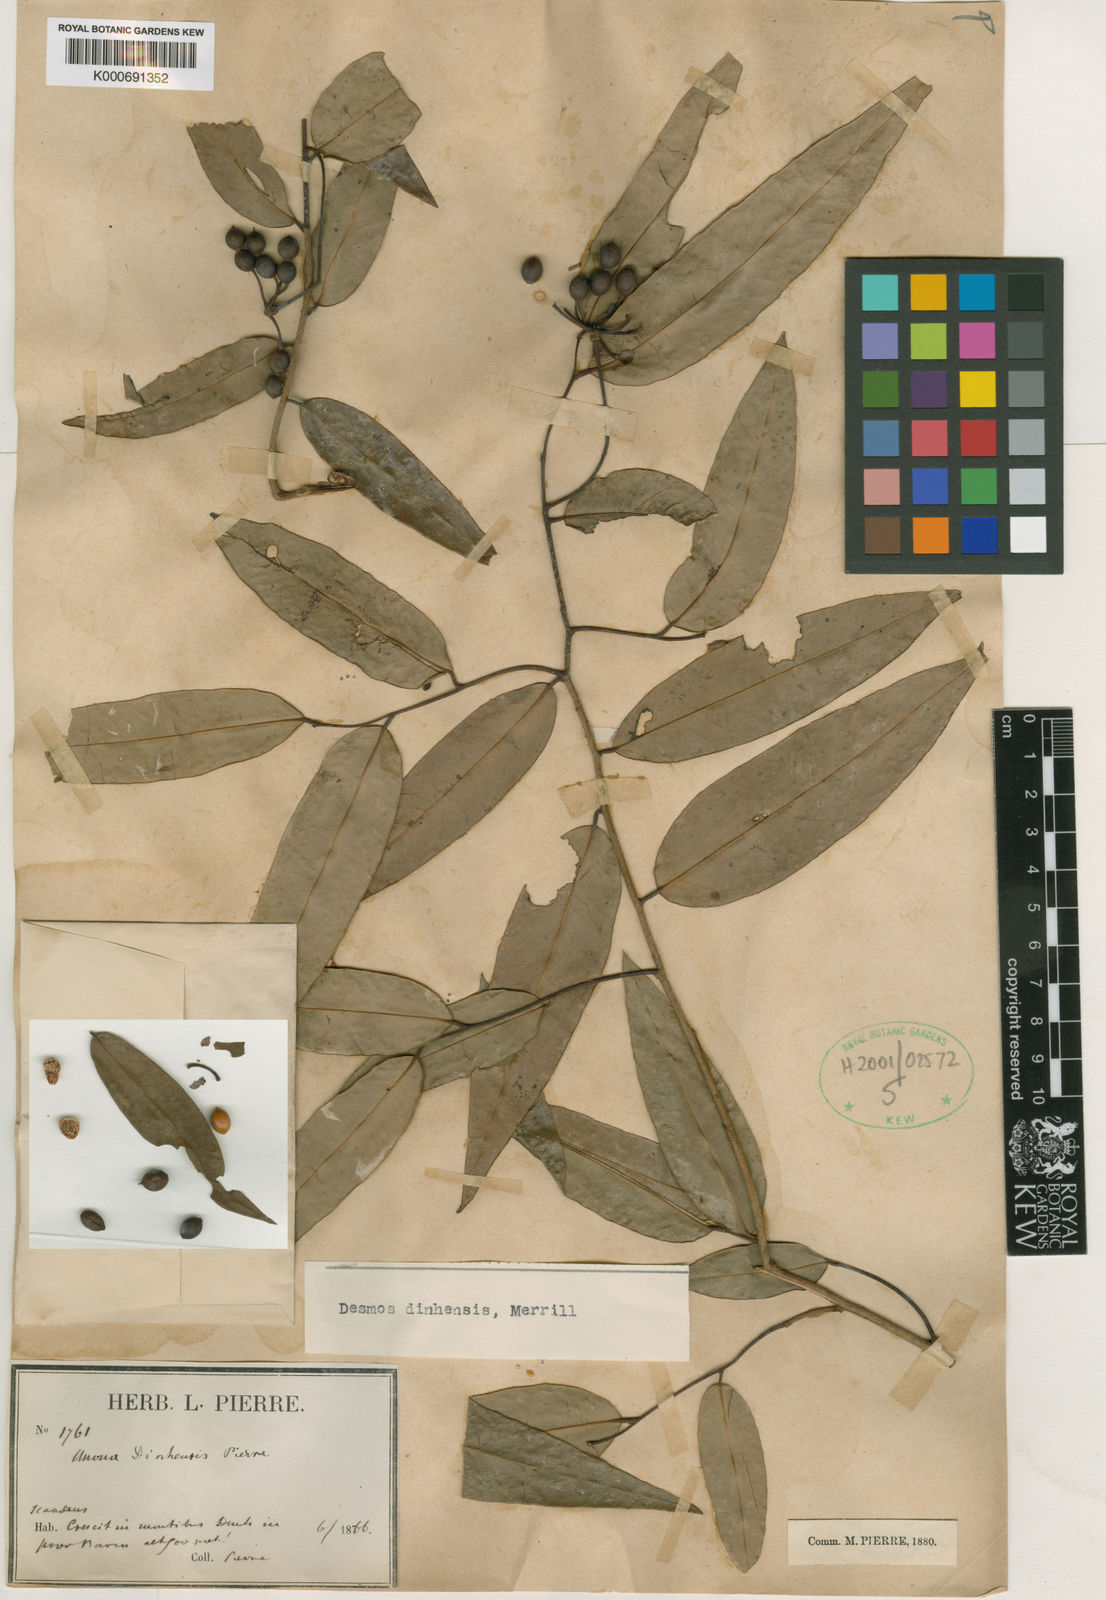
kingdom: Plantae
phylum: Tracheophyta
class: Magnoliopsida
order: Magnoliales
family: Annonaceae
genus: Desmos
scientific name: Desmos dinhensis
